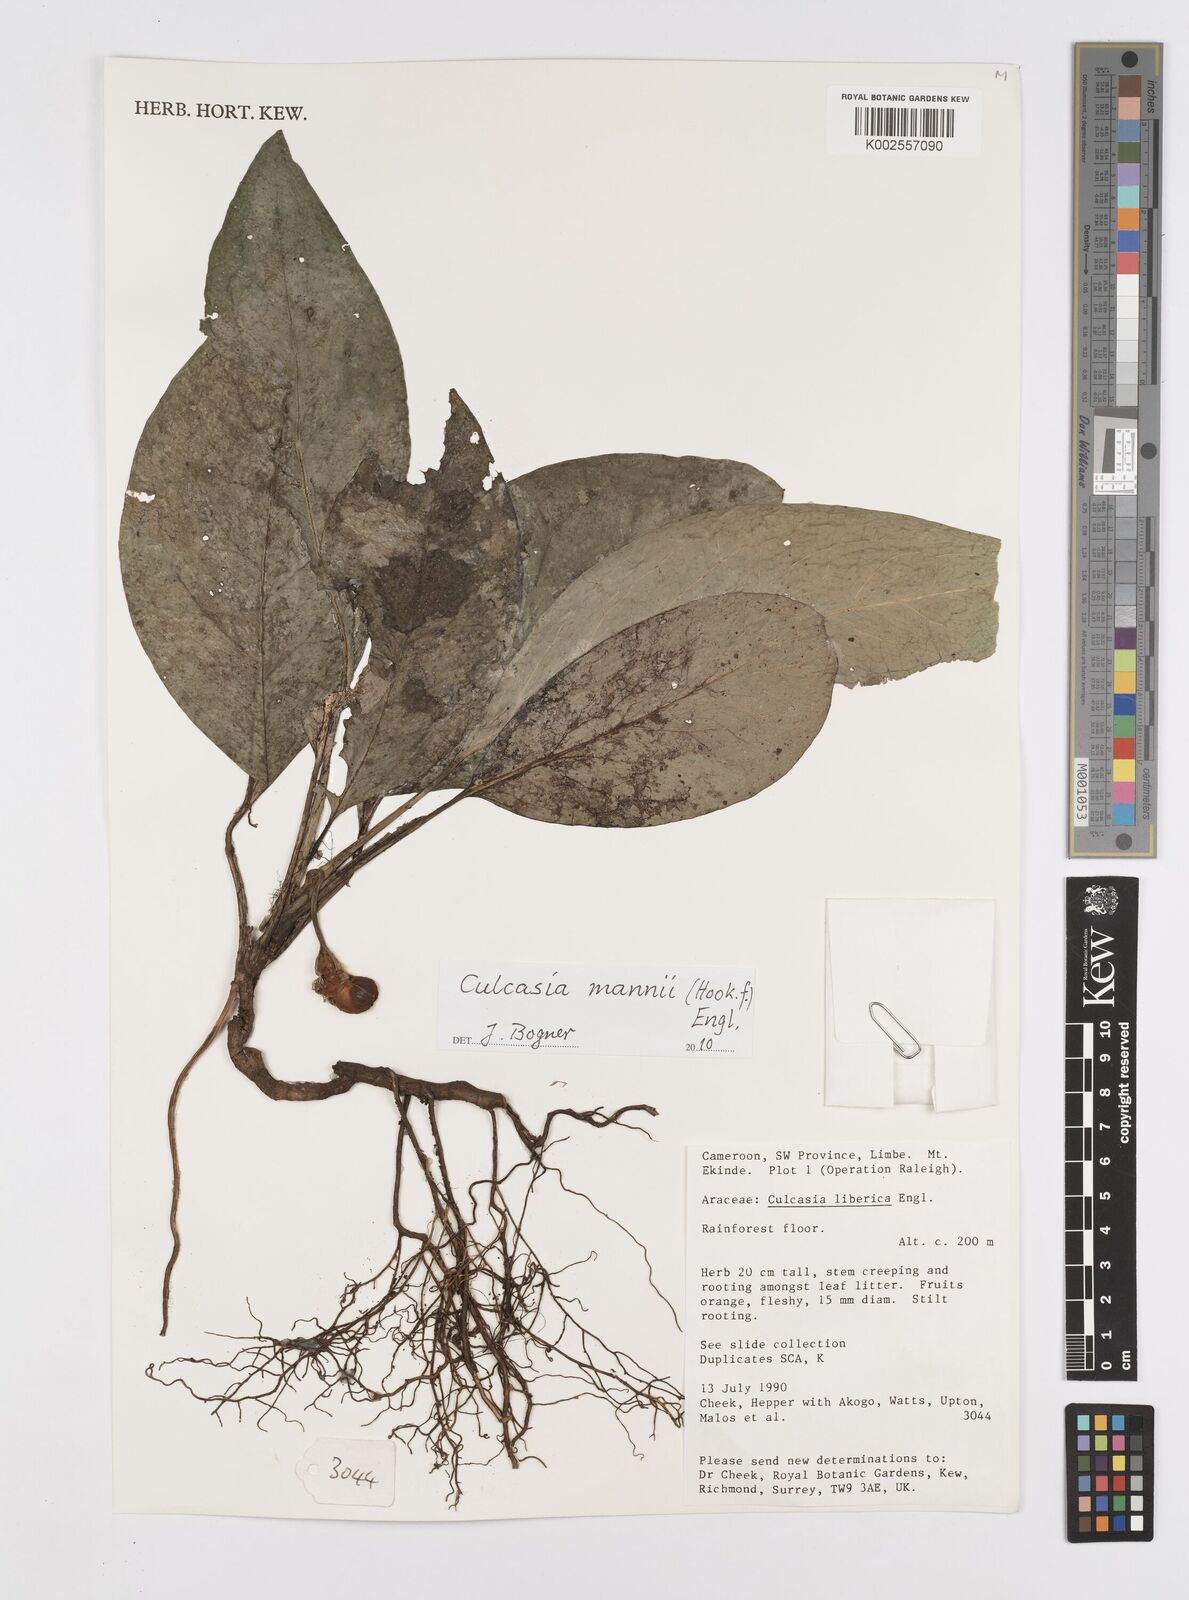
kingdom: Plantae
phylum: Tracheophyta
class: Liliopsida
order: Alismatales
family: Araceae
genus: Culcasia
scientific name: Culcasia mannii
